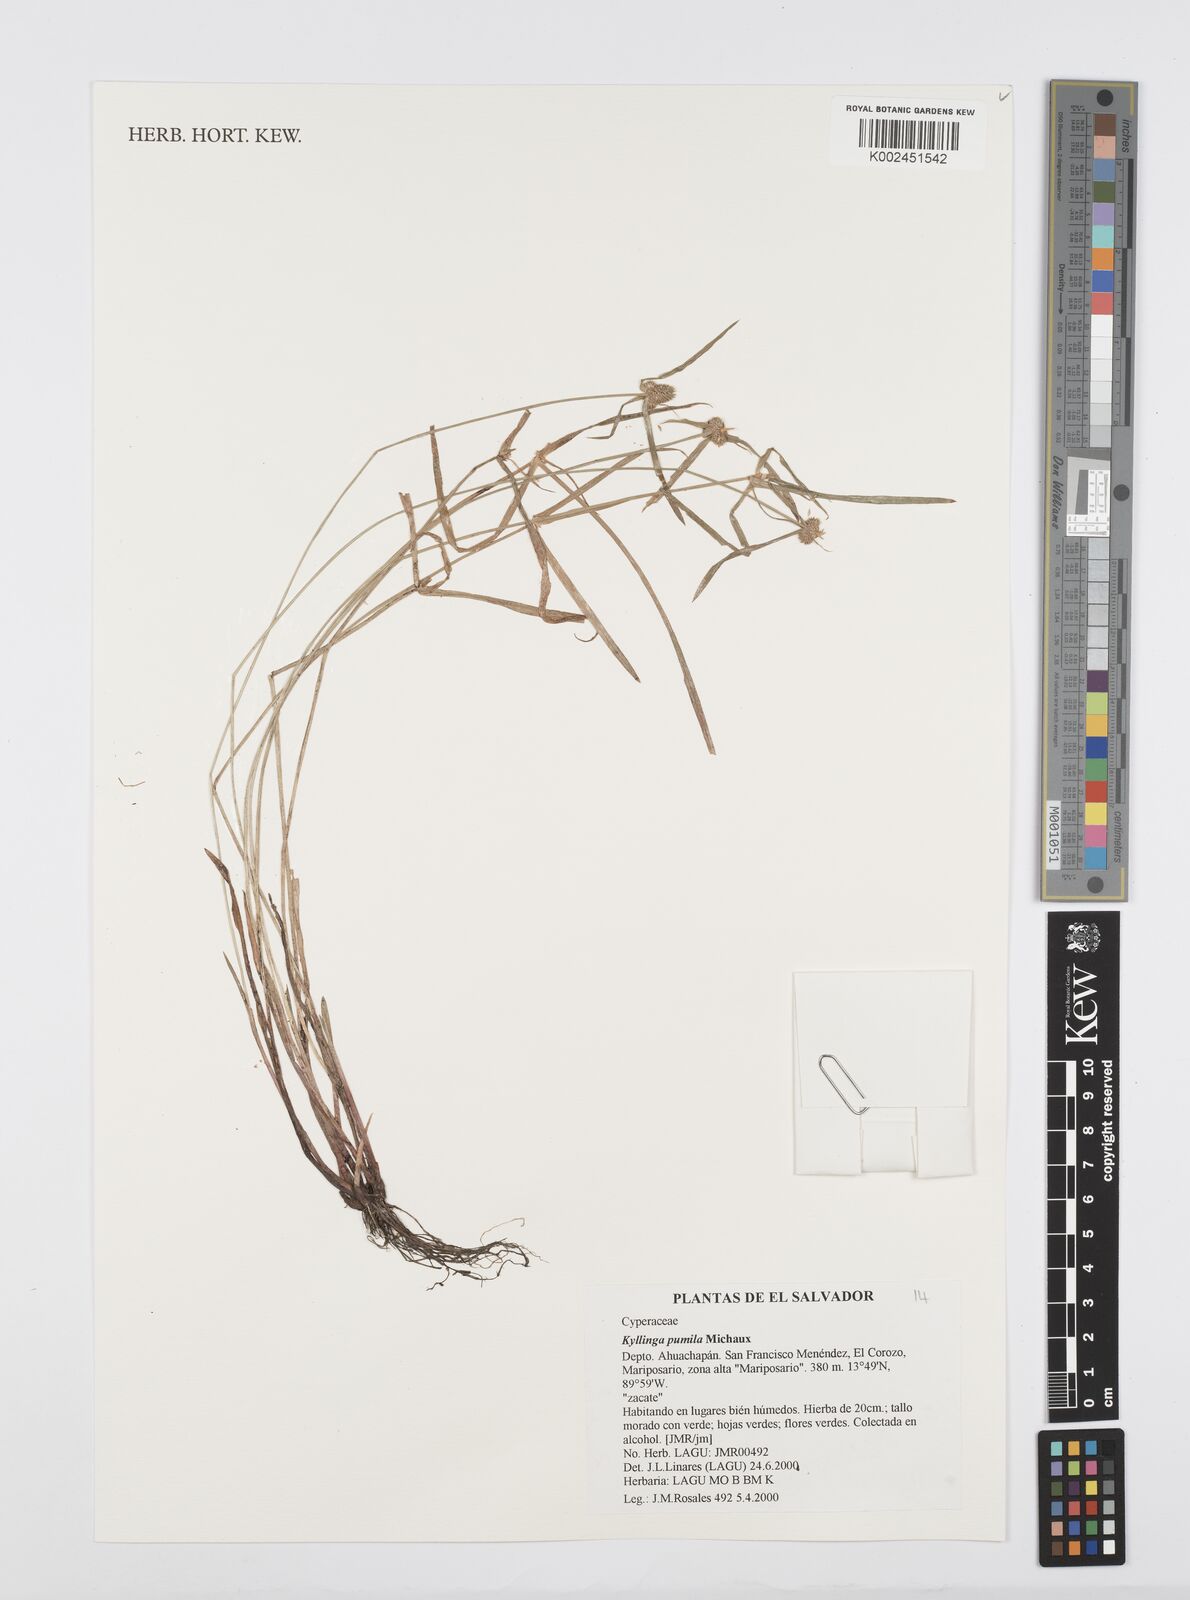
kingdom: Plantae
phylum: Tracheophyta
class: Liliopsida
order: Poales
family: Cyperaceae
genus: Cyperus
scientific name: Cyperus
